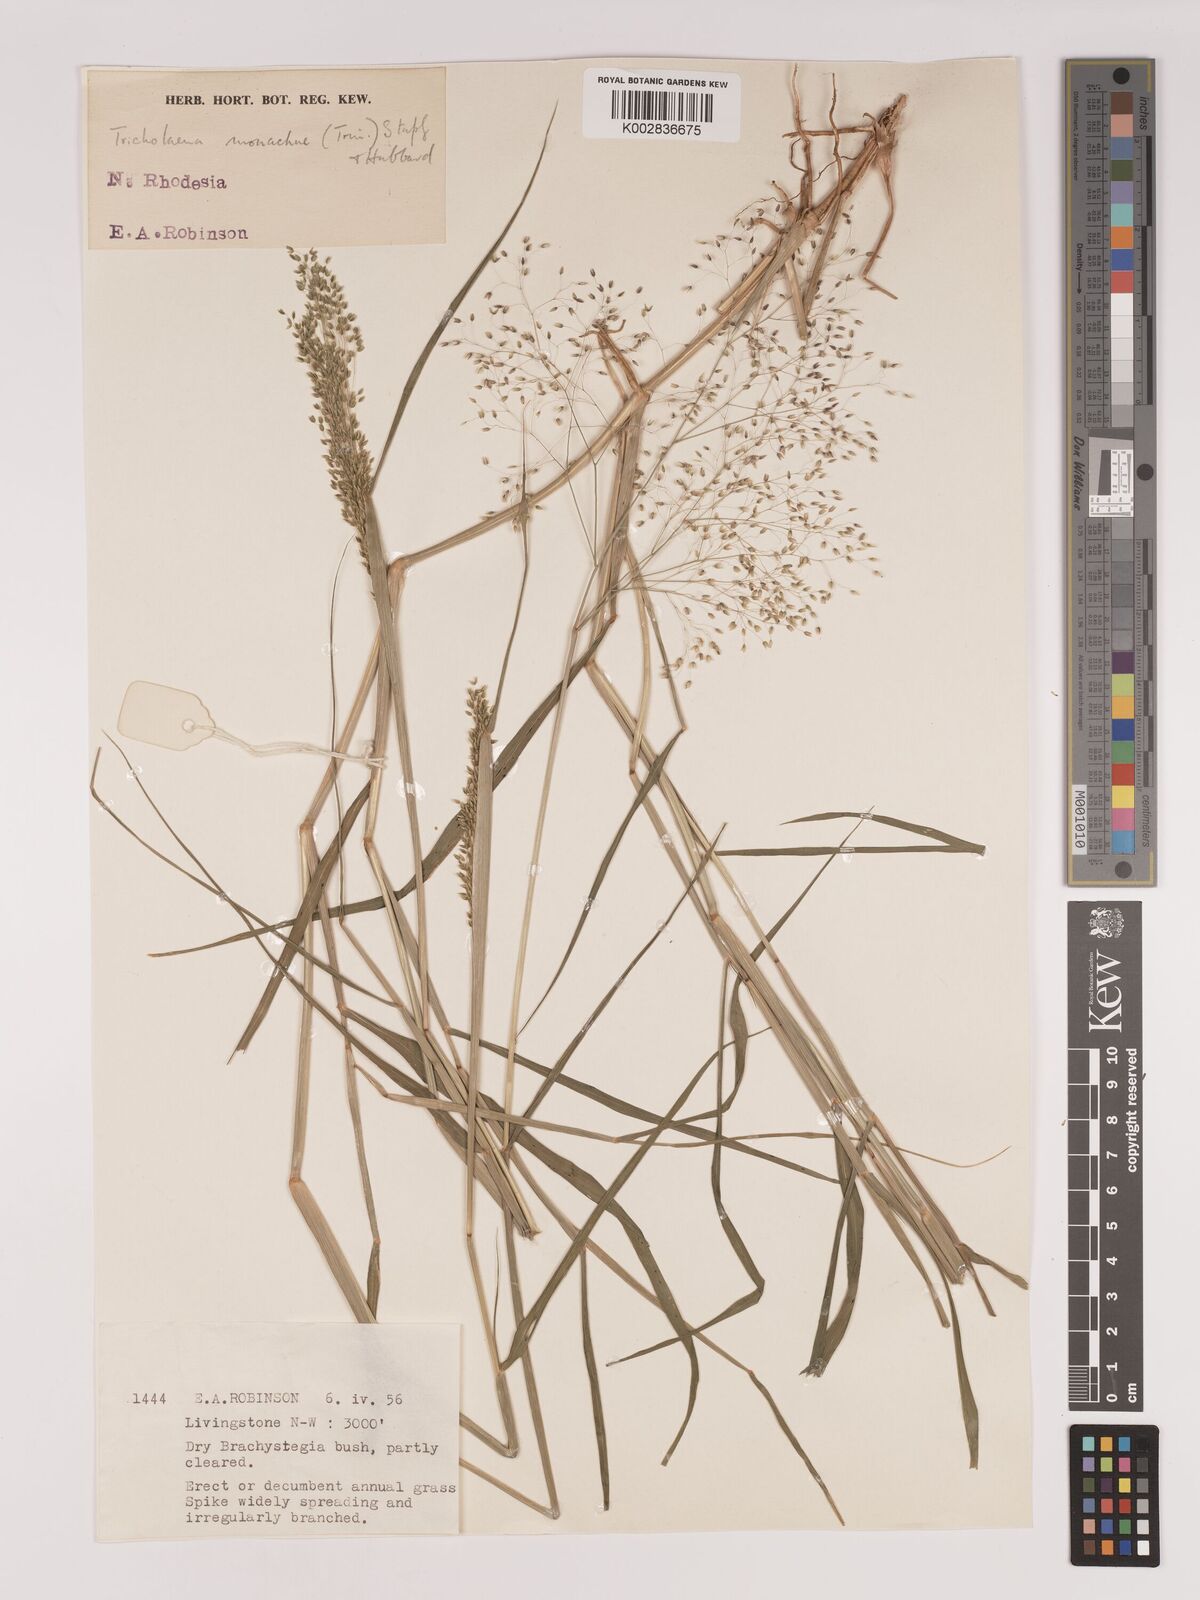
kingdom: Plantae
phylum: Tracheophyta
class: Liliopsida
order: Poales
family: Poaceae
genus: Tricholaena
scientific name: Tricholaena monachne
